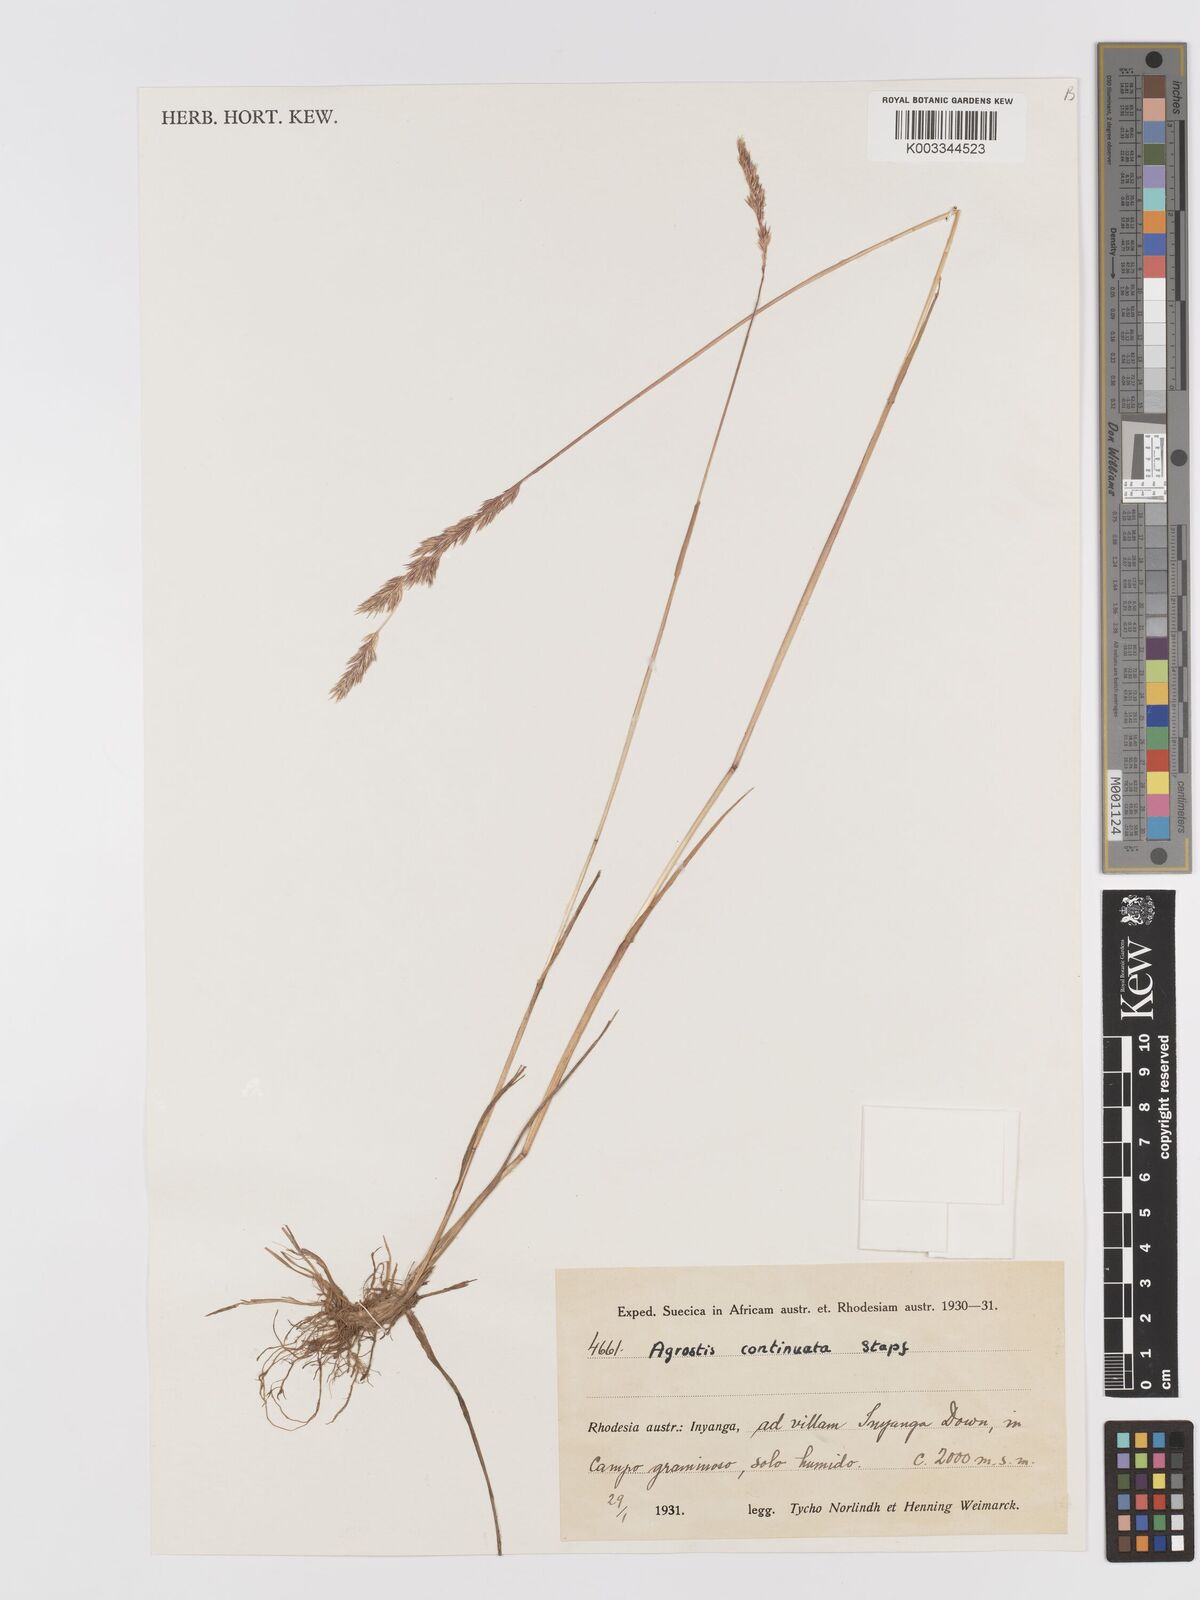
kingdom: Plantae
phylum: Tracheophyta
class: Liliopsida
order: Poales
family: Poaceae
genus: Agrostis
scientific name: Agrostis continuata
